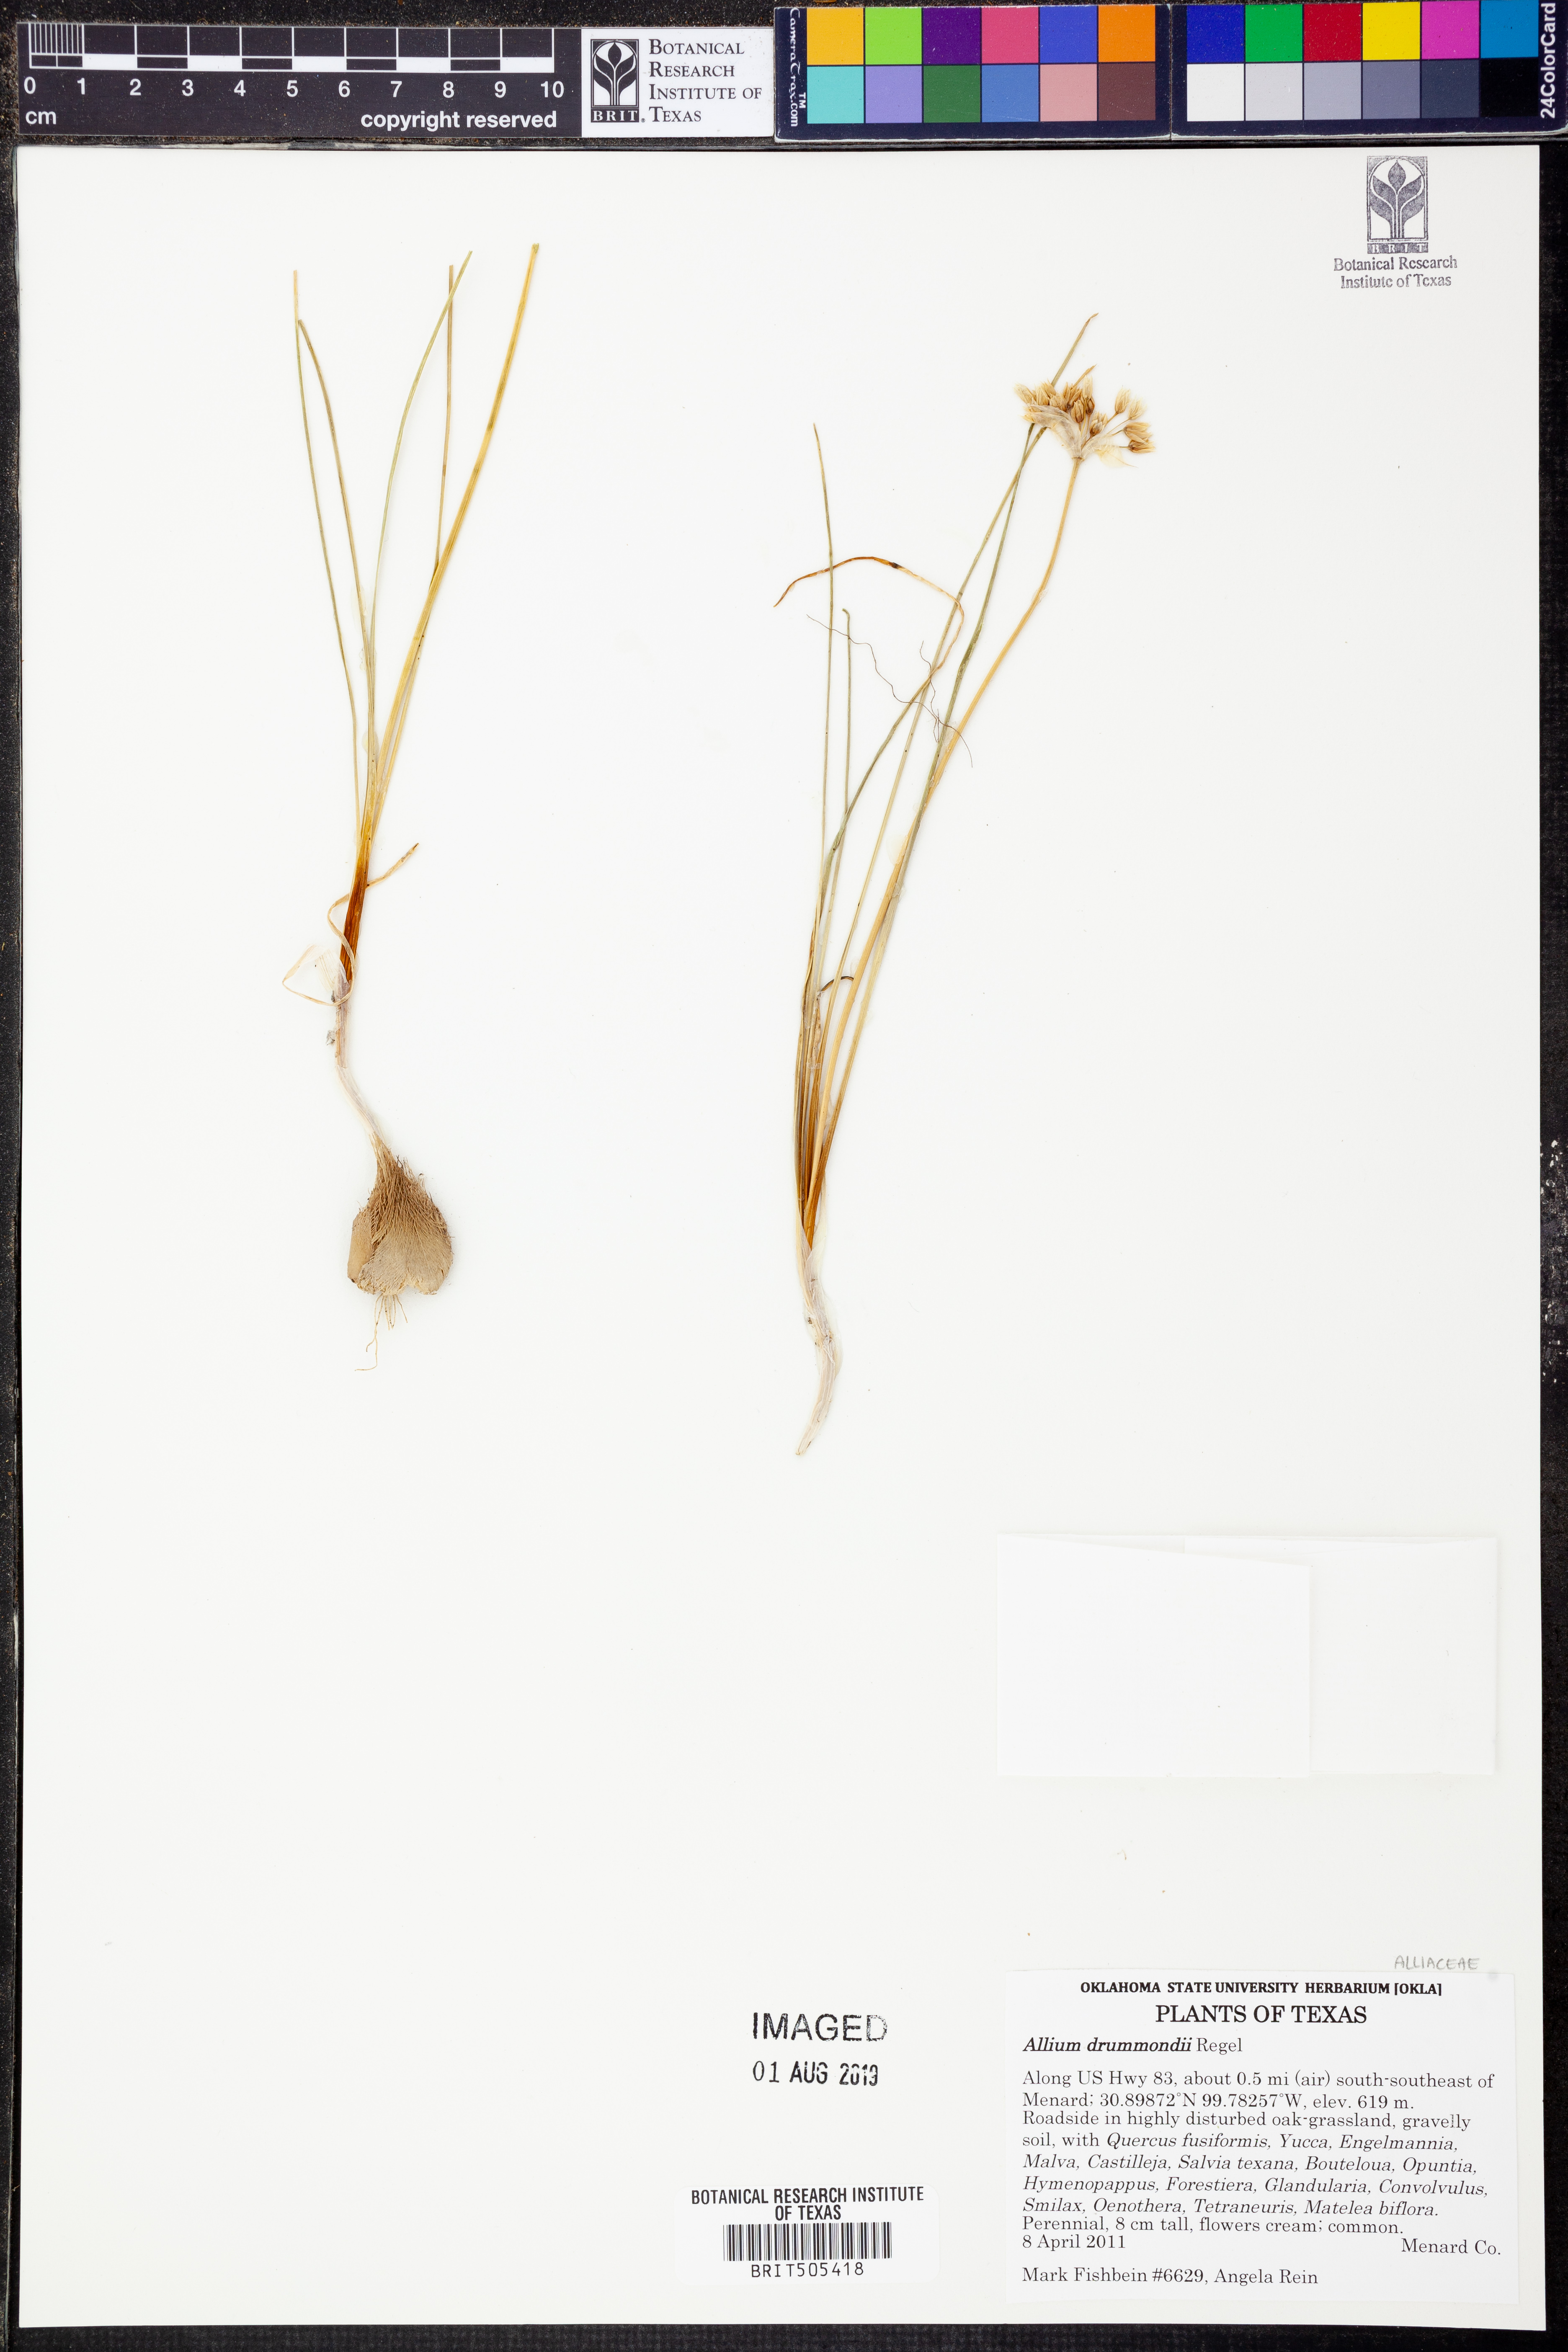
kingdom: Plantae
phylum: Tracheophyta
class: Liliopsida
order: Asparagales
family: Amaryllidaceae
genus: Allium
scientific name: Allium drummondii
